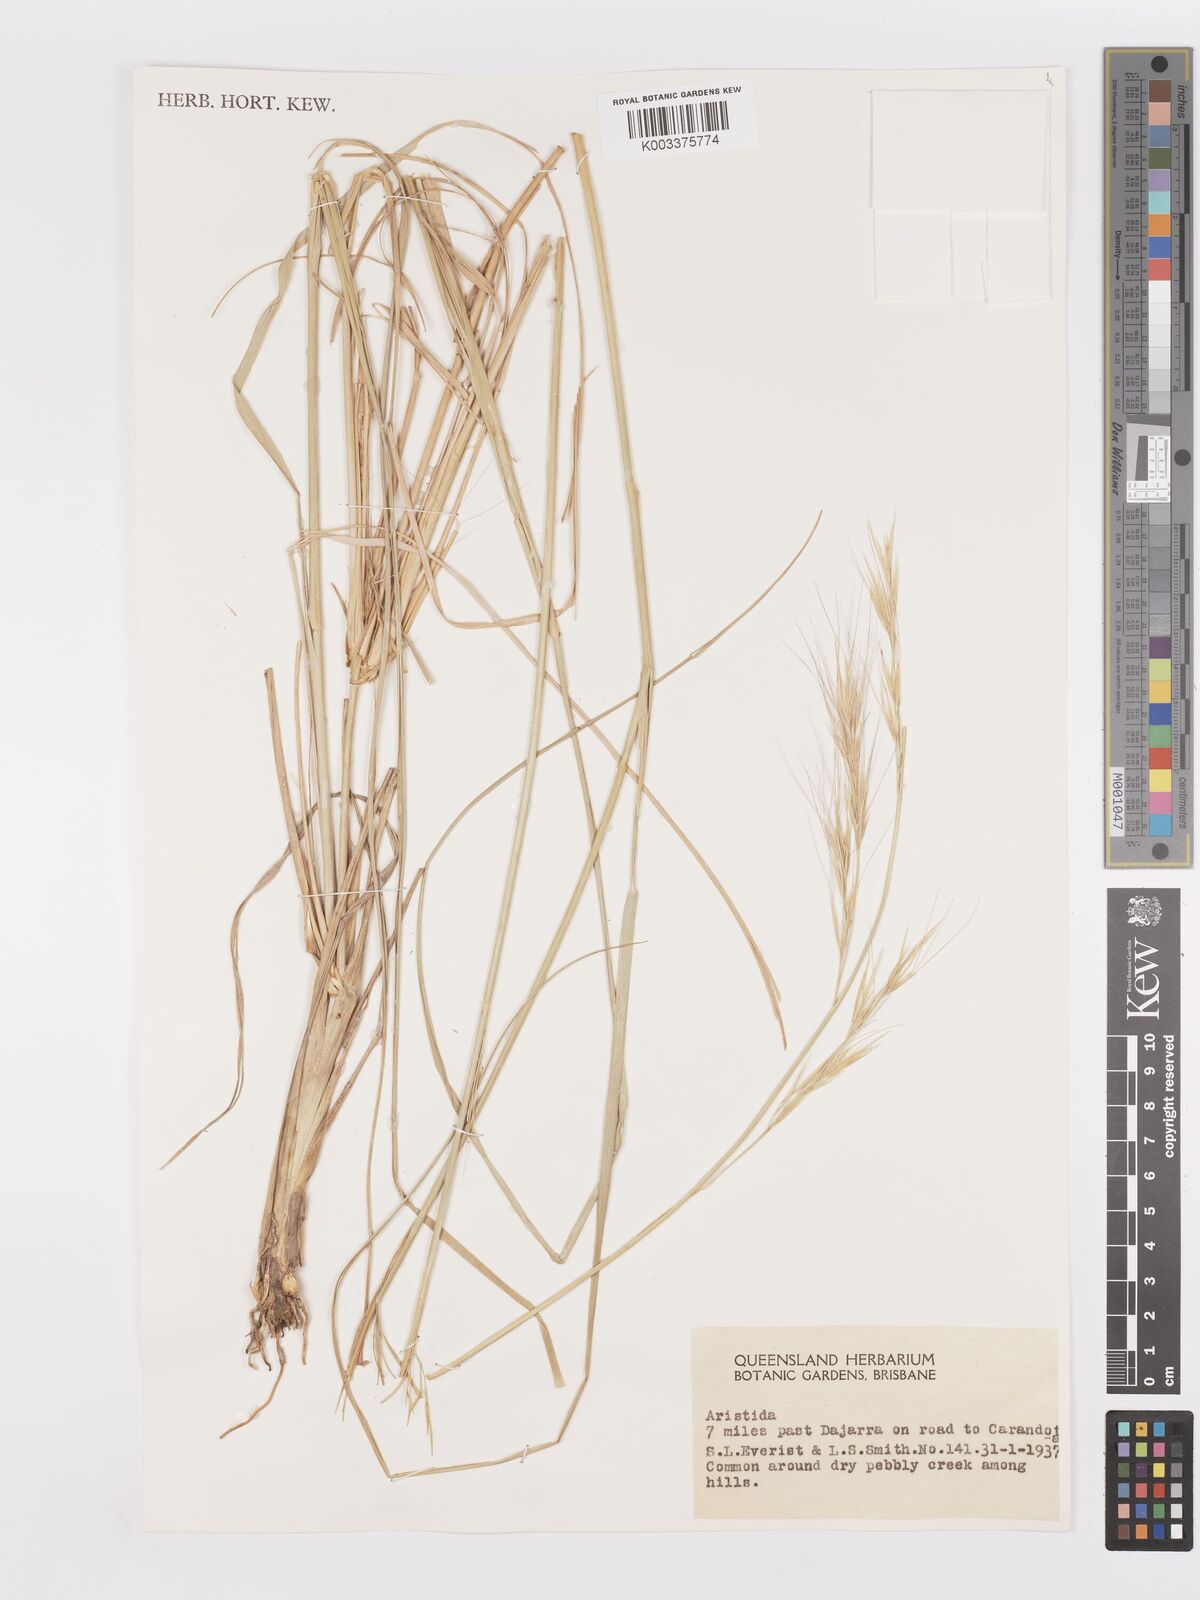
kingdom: Plantae
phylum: Tracheophyta
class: Liliopsida
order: Poales
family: Poaceae
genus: Aristida
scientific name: Aristida
